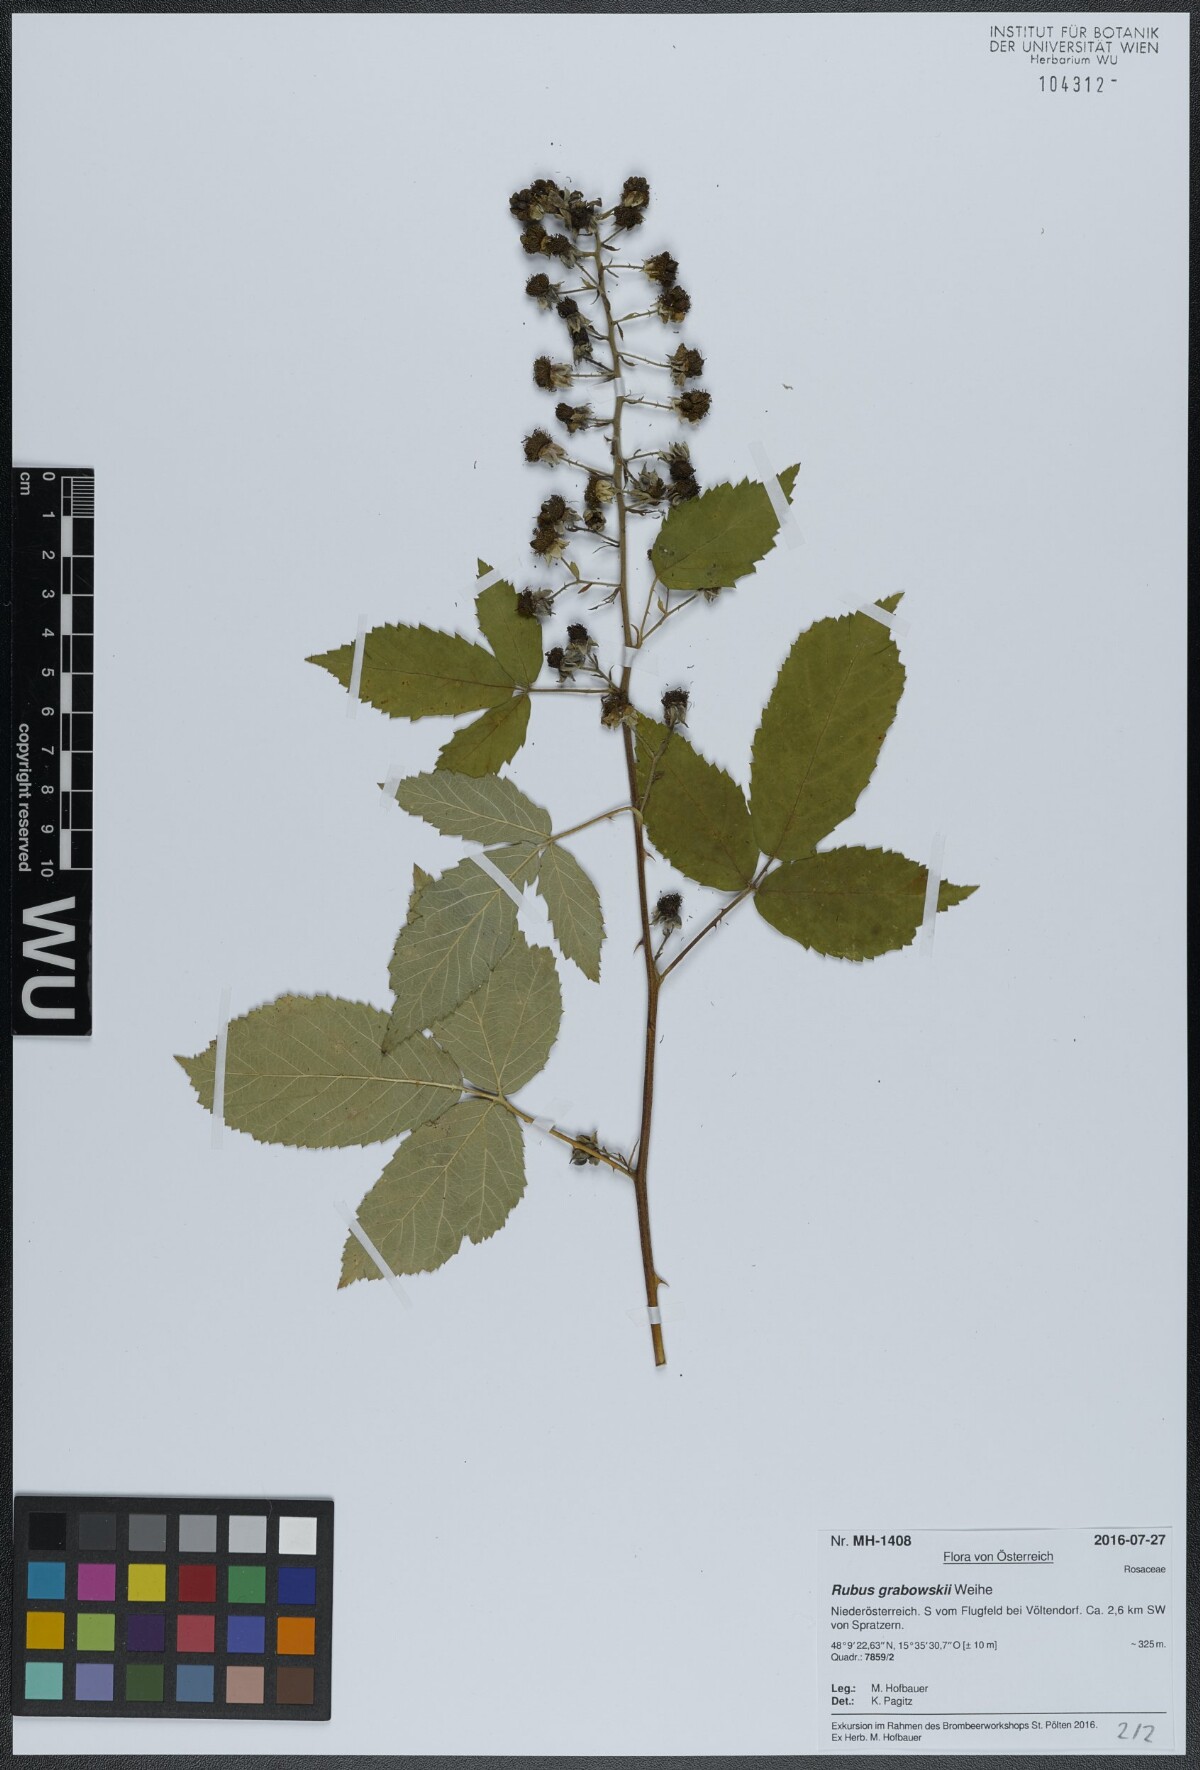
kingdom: Plantae
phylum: Tracheophyta
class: Magnoliopsida
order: Rosales
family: Rosaceae
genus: Rubus
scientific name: Rubus grabowskii
